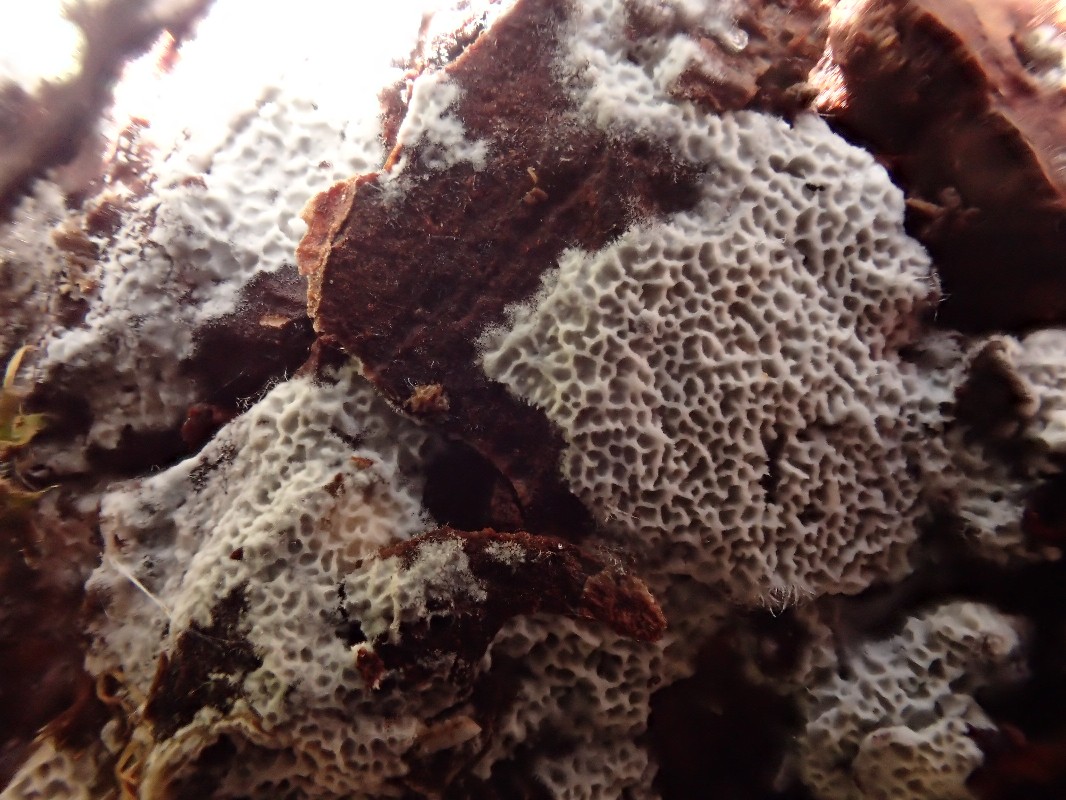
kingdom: Fungi
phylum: Basidiomycota
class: Agaricomycetes
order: Polyporales
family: Irpicaceae
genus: Ceriporia
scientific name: Ceriporia reticulata
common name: netagtig voksporesvamp
